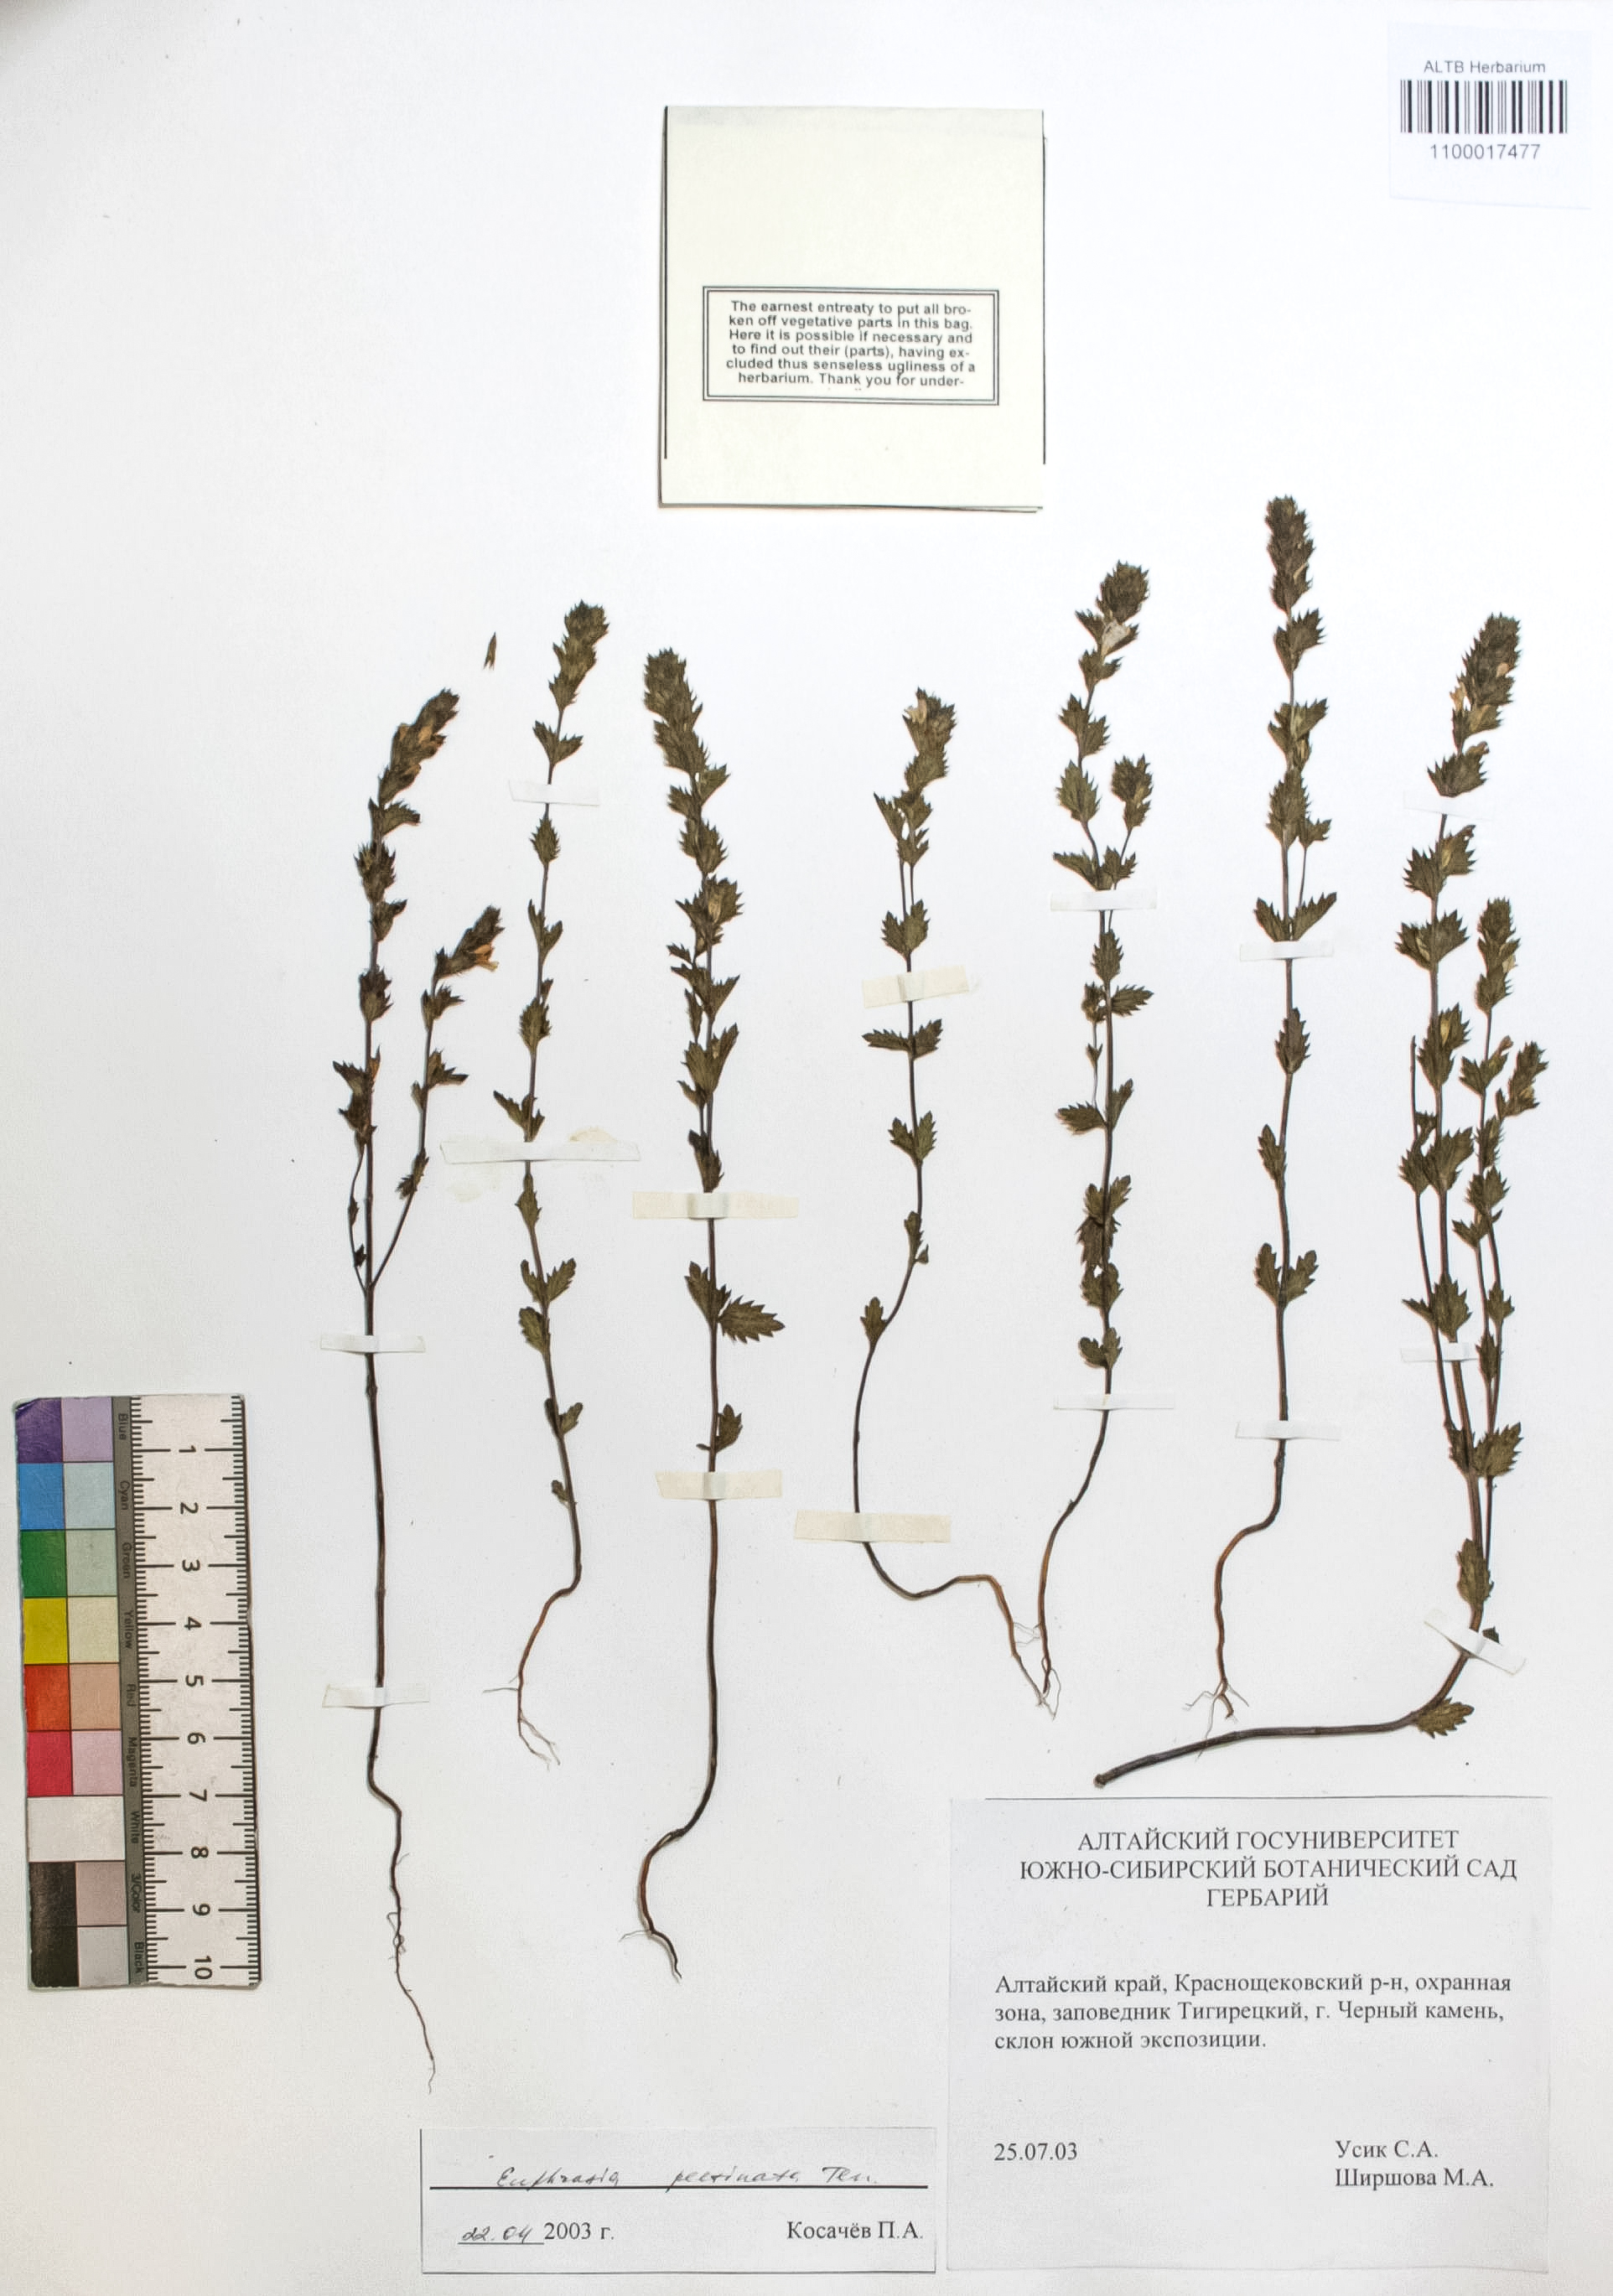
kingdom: Plantae
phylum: Tracheophyta
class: Magnoliopsida
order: Lamiales
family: Orobanchaceae
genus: Euphrasia
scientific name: Euphrasia pectinata
